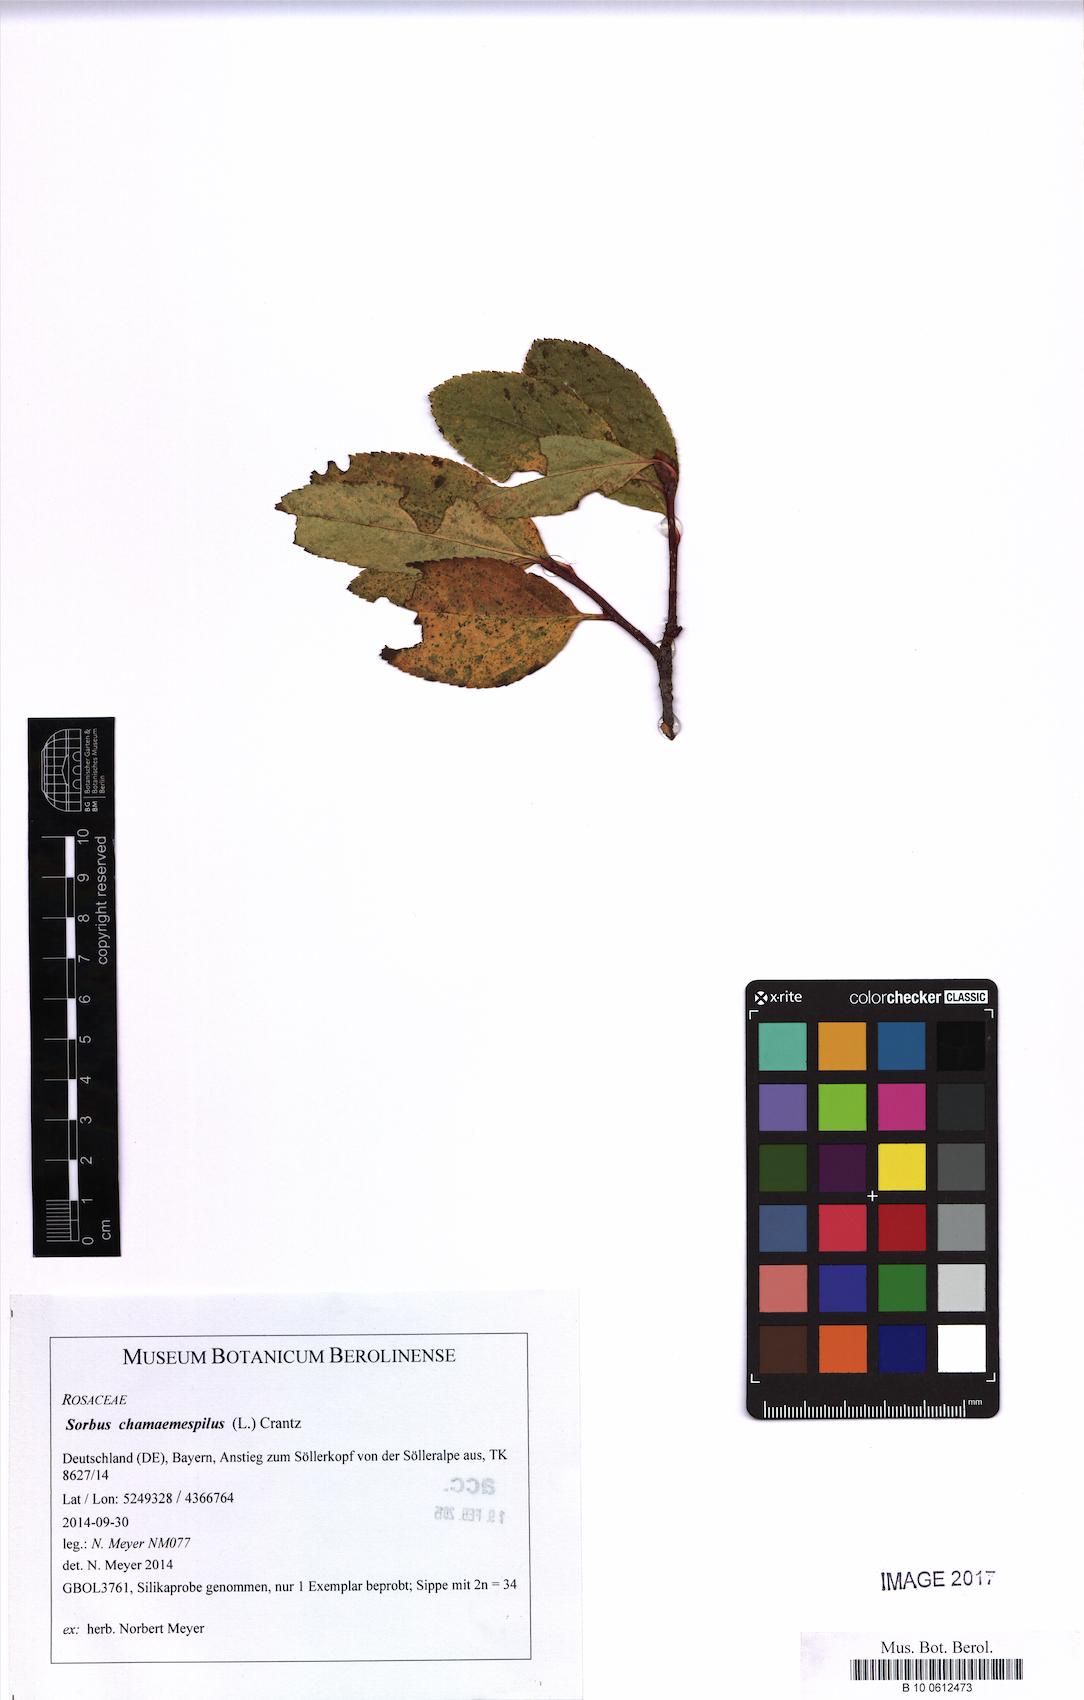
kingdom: Plantae
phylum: Tracheophyta
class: Magnoliopsida
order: Rosales
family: Rosaceae
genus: Chamaemespilus
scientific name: Chamaemespilus alpina
